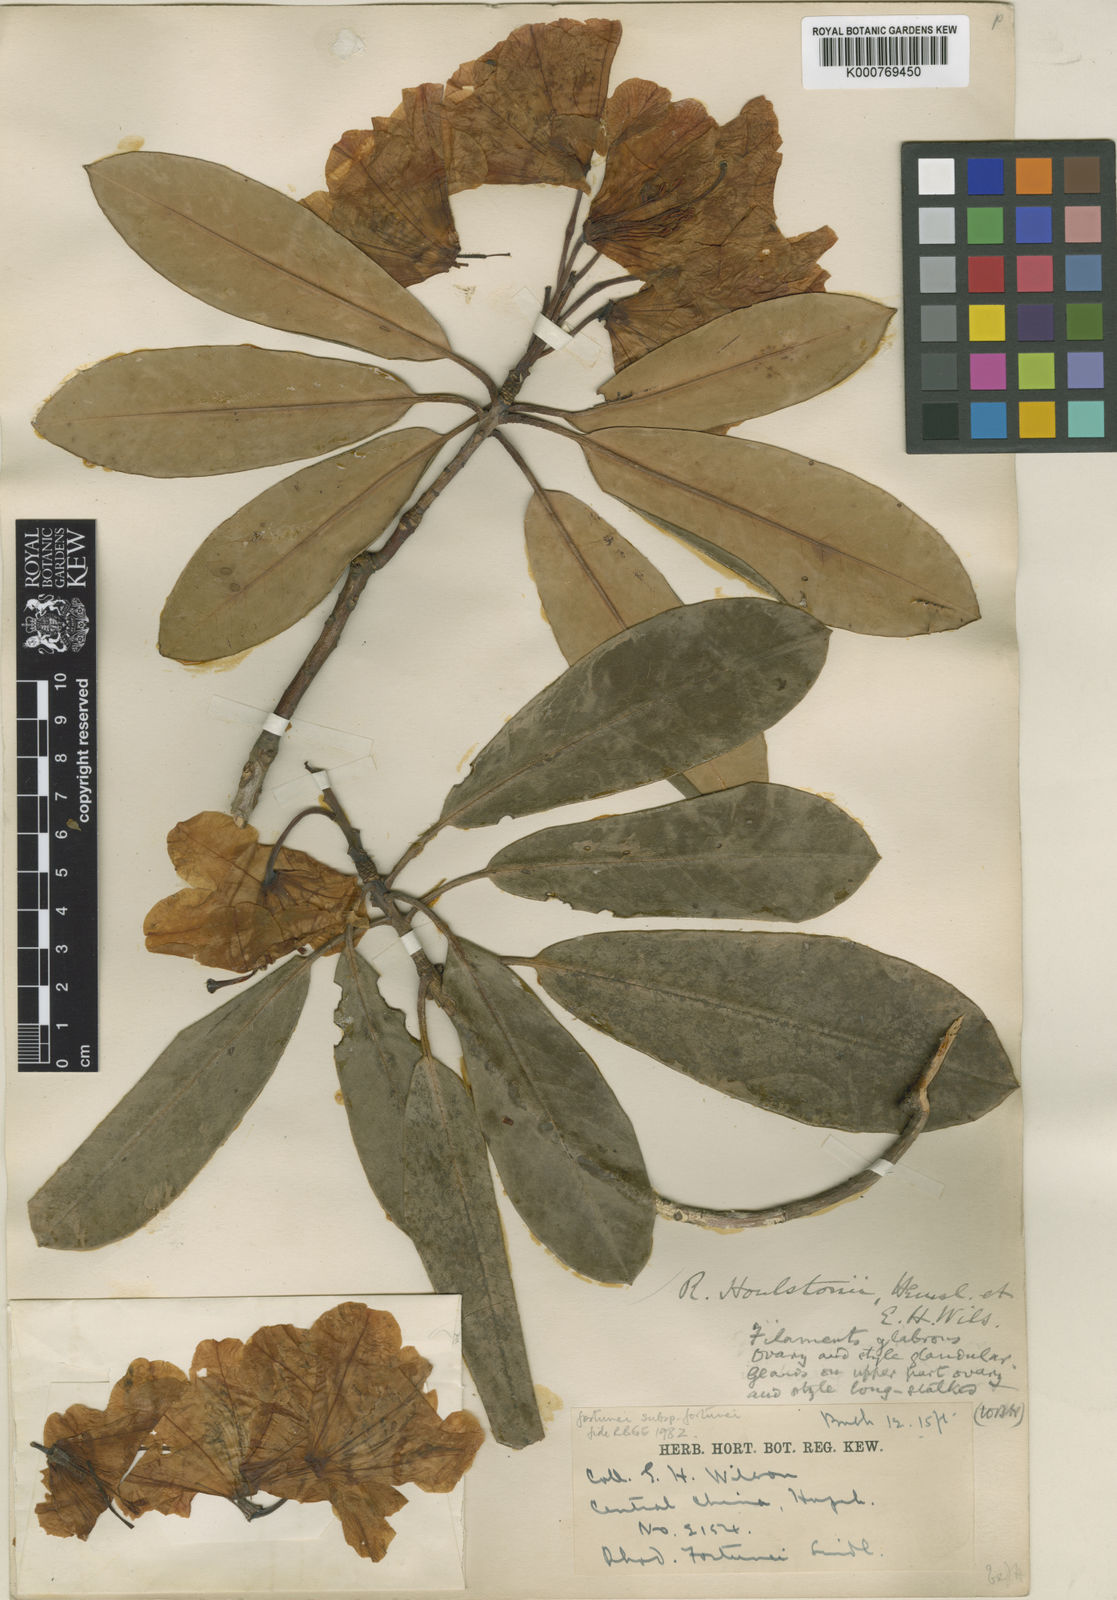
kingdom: Plantae
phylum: Tracheophyta
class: Magnoliopsida
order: Ericales
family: Ericaceae
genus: Rhododendron
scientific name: Rhododendron fortunei
